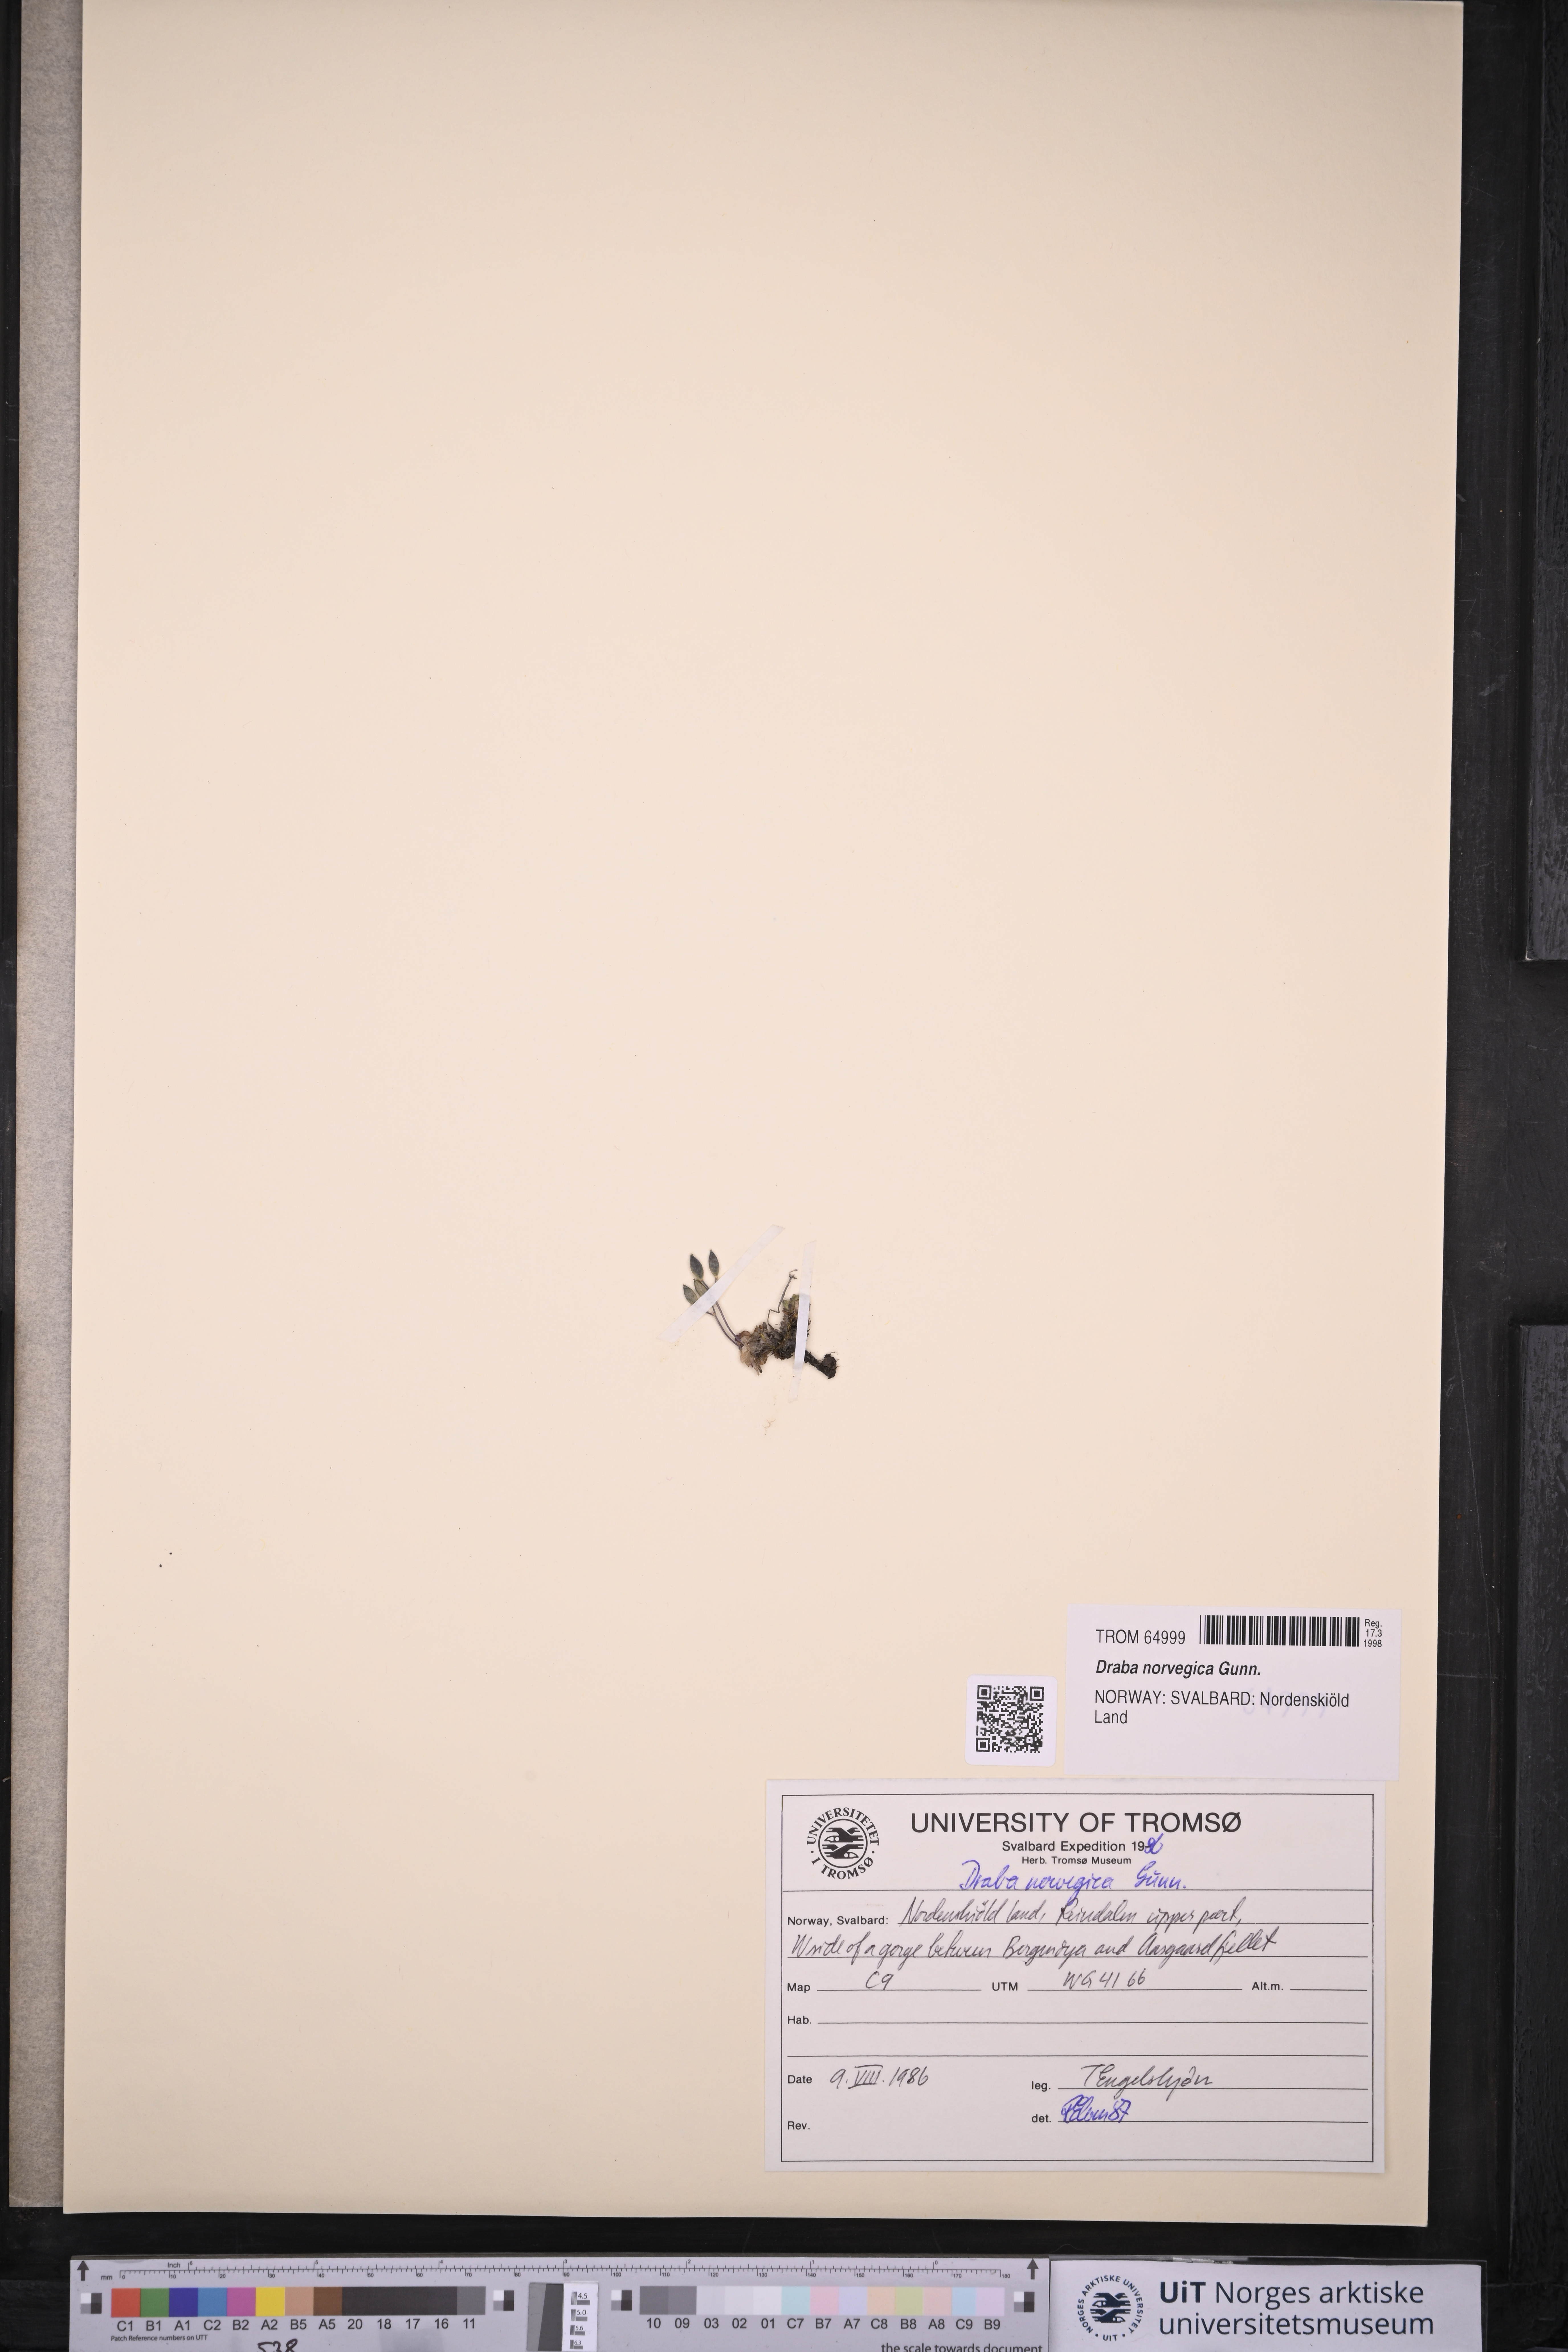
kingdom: Plantae
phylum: Tracheophyta
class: Magnoliopsida
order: Brassicales
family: Brassicaceae
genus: Draba
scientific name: Draba norvegica
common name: Rock whitlowgrass
